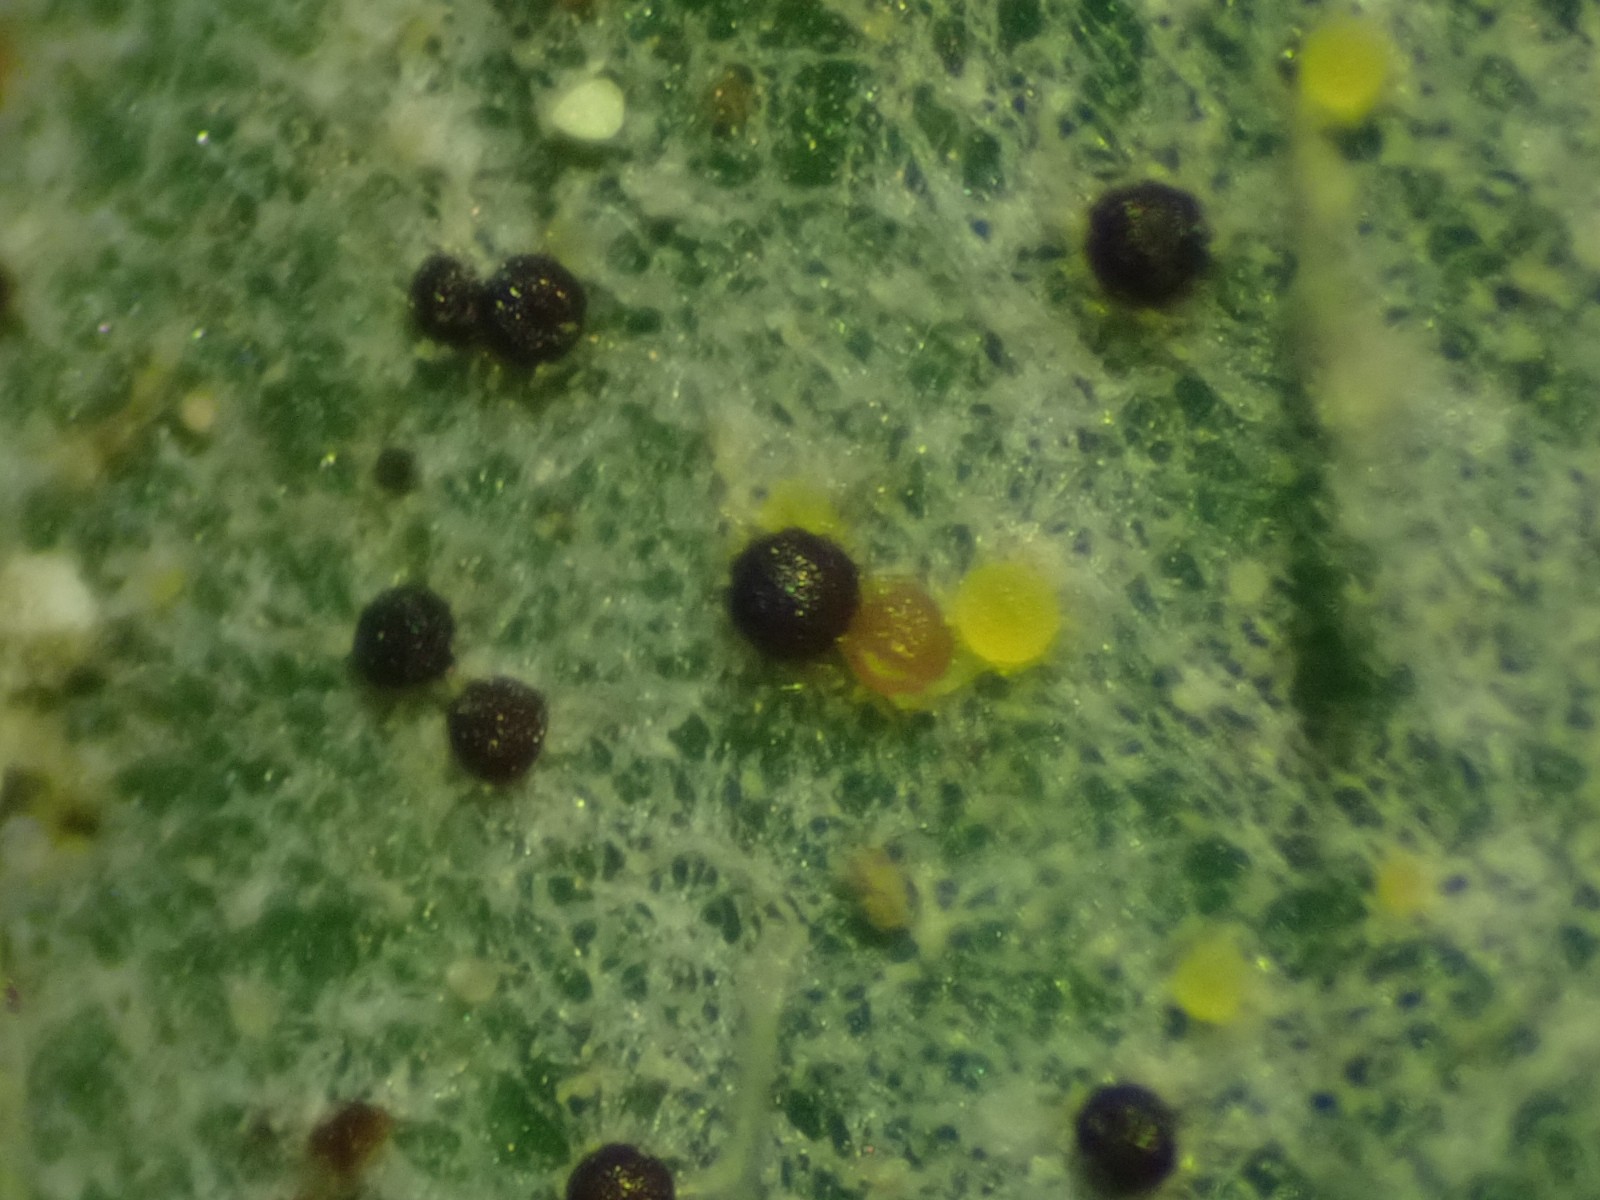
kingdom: Fungi
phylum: Ascomycota
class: Leotiomycetes
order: Helotiales
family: Erysiphaceae
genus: Erysiphe
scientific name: Erysiphe
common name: meldug
